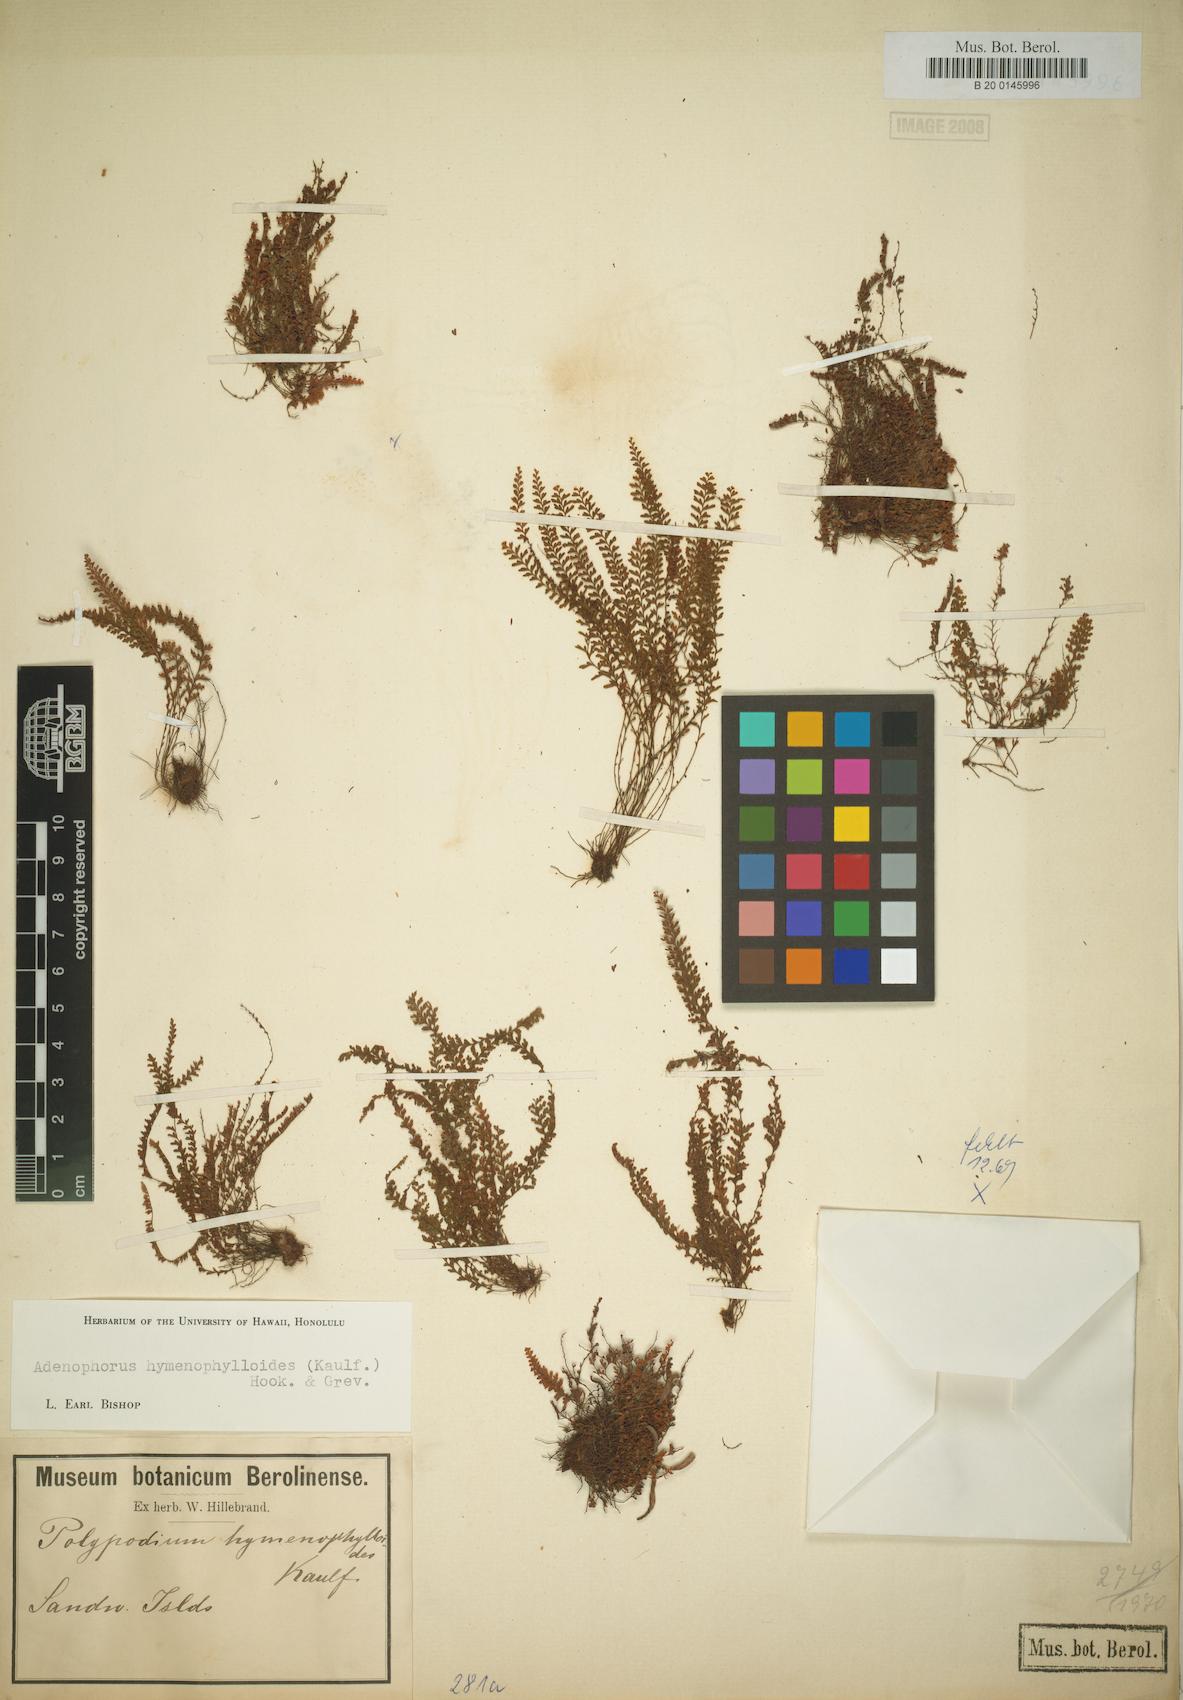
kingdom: Plantae
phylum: Tracheophyta
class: Polypodiopsida
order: Polypodiales
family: Polypodiaceae
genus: Adenophorus
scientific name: Adenophorus hymenophylloides
